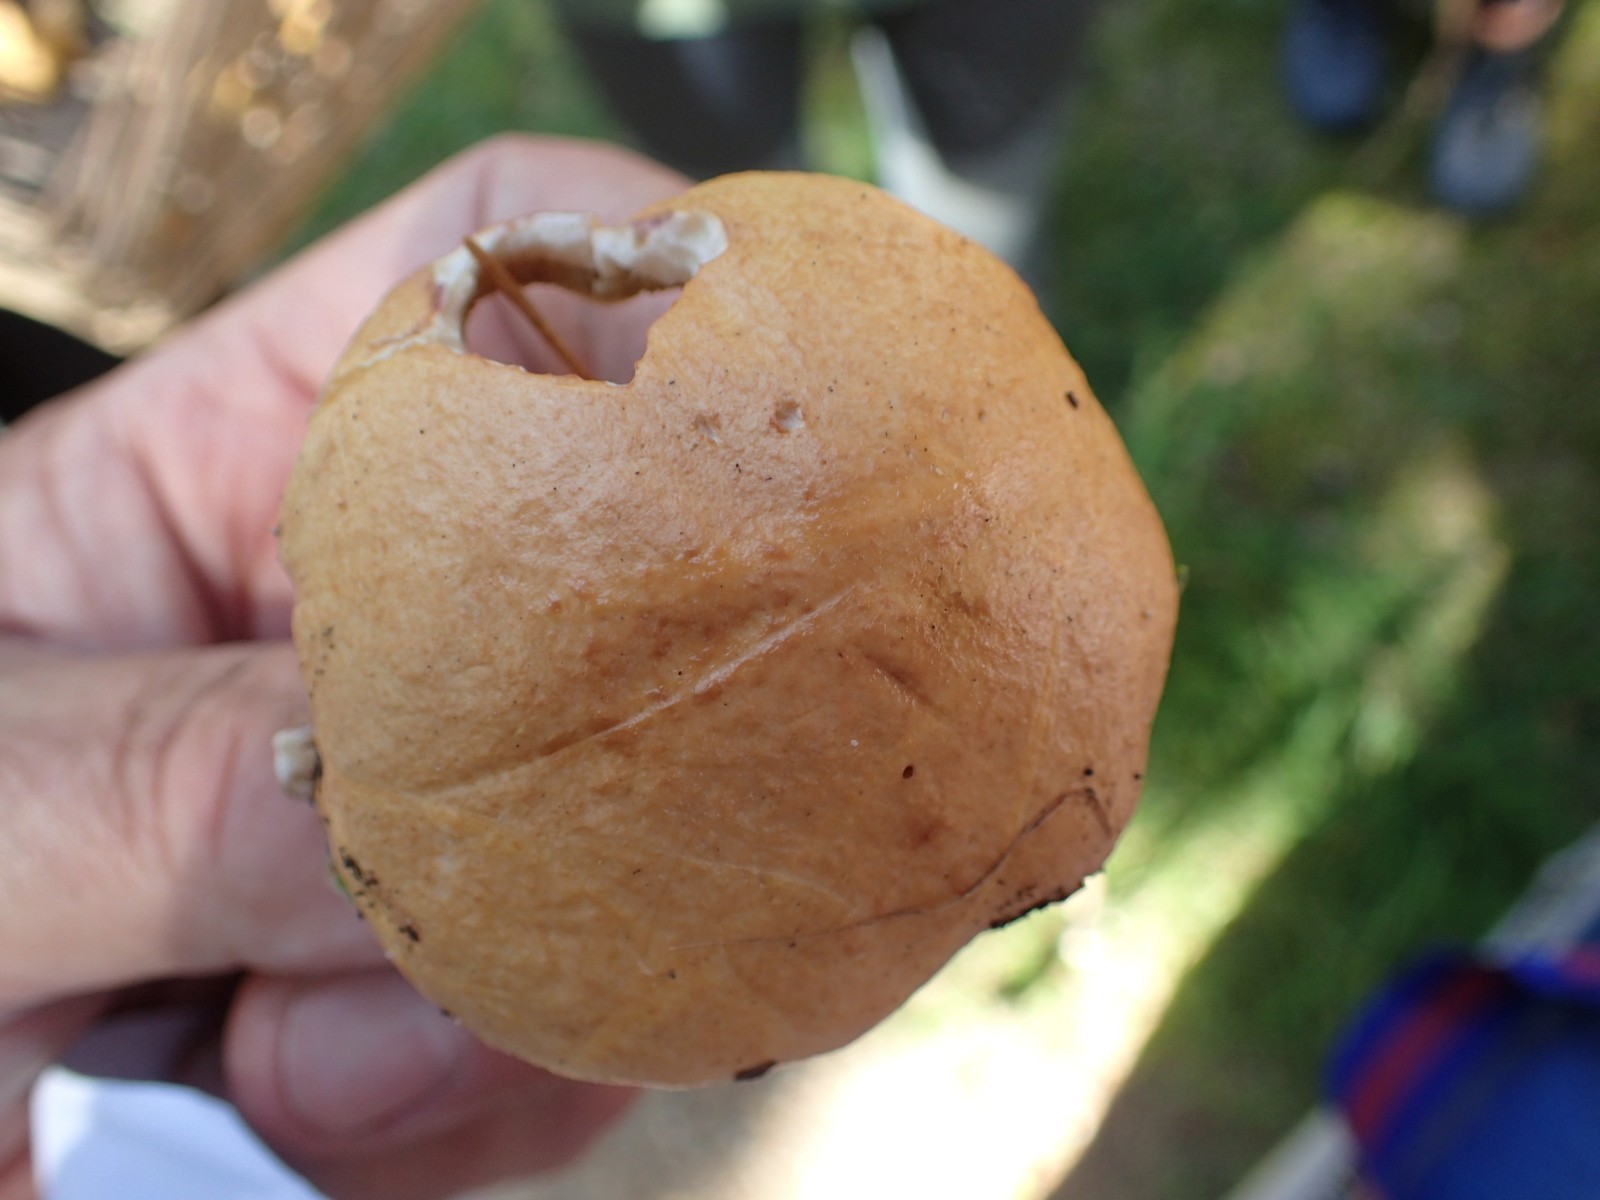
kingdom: Fungi
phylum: Basidiomycota
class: Agaricomycetes
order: Boletales
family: Suillaceae
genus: Suillus
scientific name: Suillus bovinus
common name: grovporet slimrørhat
